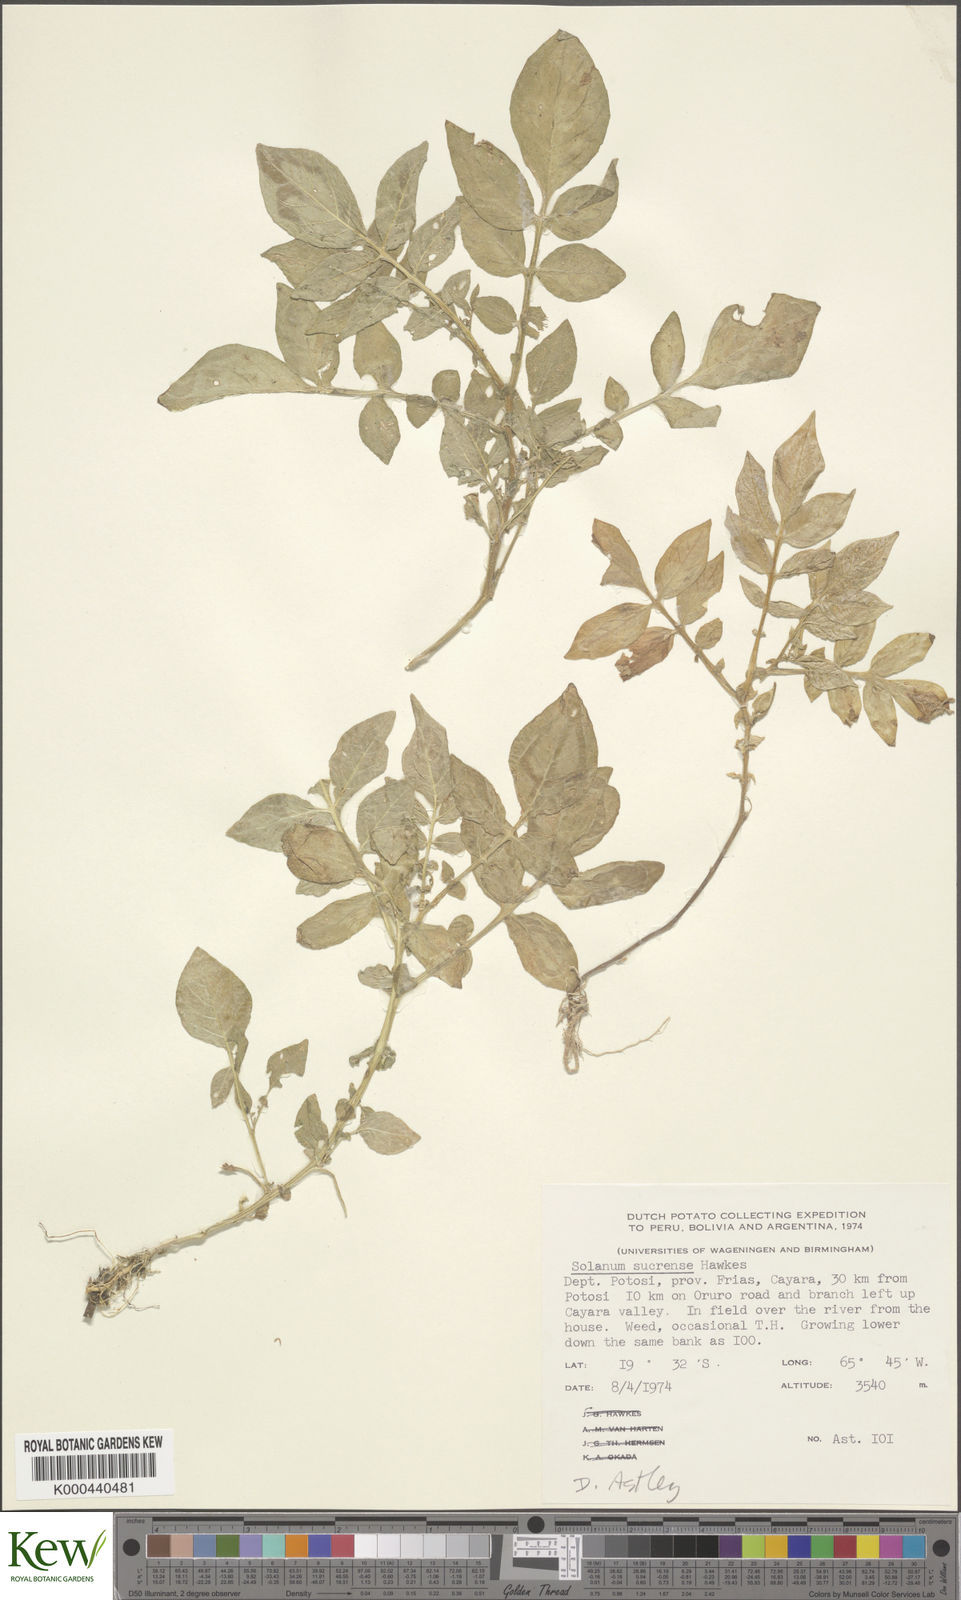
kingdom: Plantae
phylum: Tracheophyta
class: Magnoliopsida
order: Solanales
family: Solanaceae
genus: Solanum
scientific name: Solanum brevicaule
